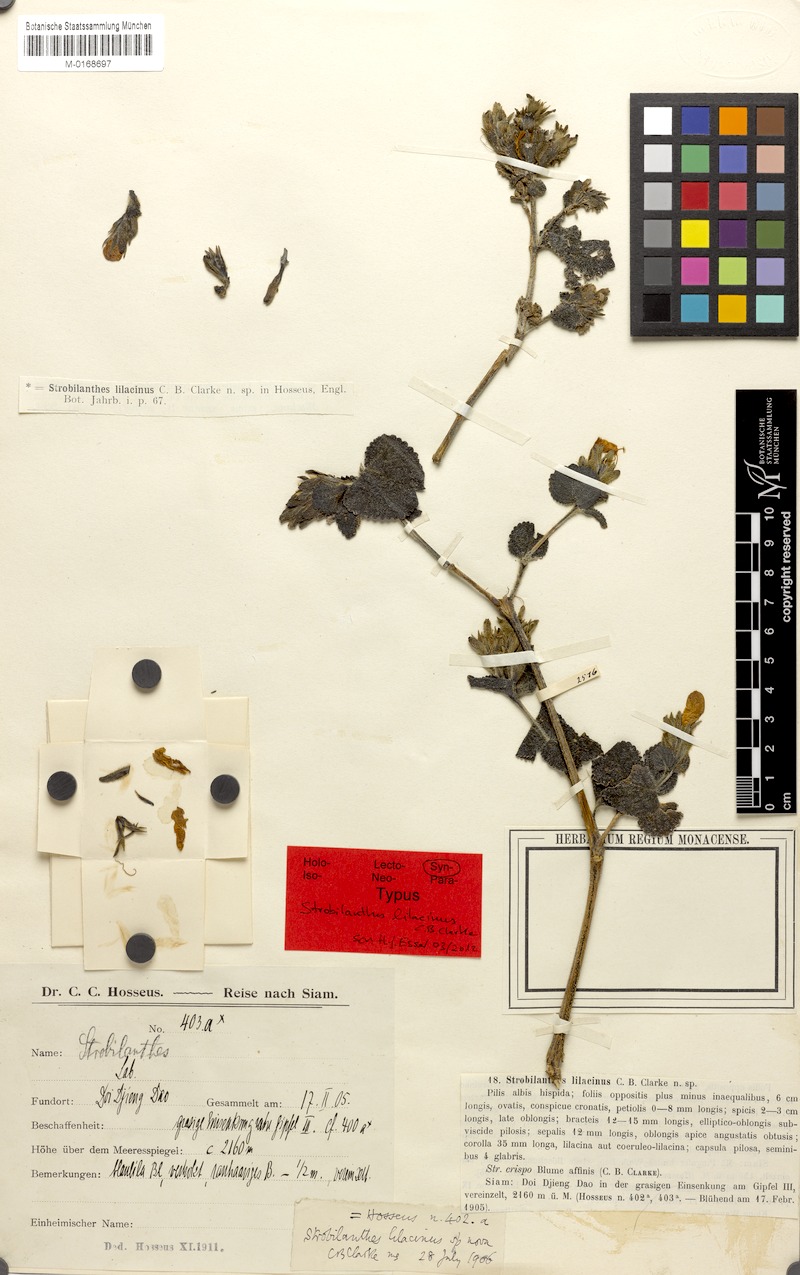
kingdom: Plantae
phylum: Tracheophyta
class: Magnoliopsida
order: Lamiales
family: Acanthaceae
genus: Strobilanthes
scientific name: Strobilanthes karensium
